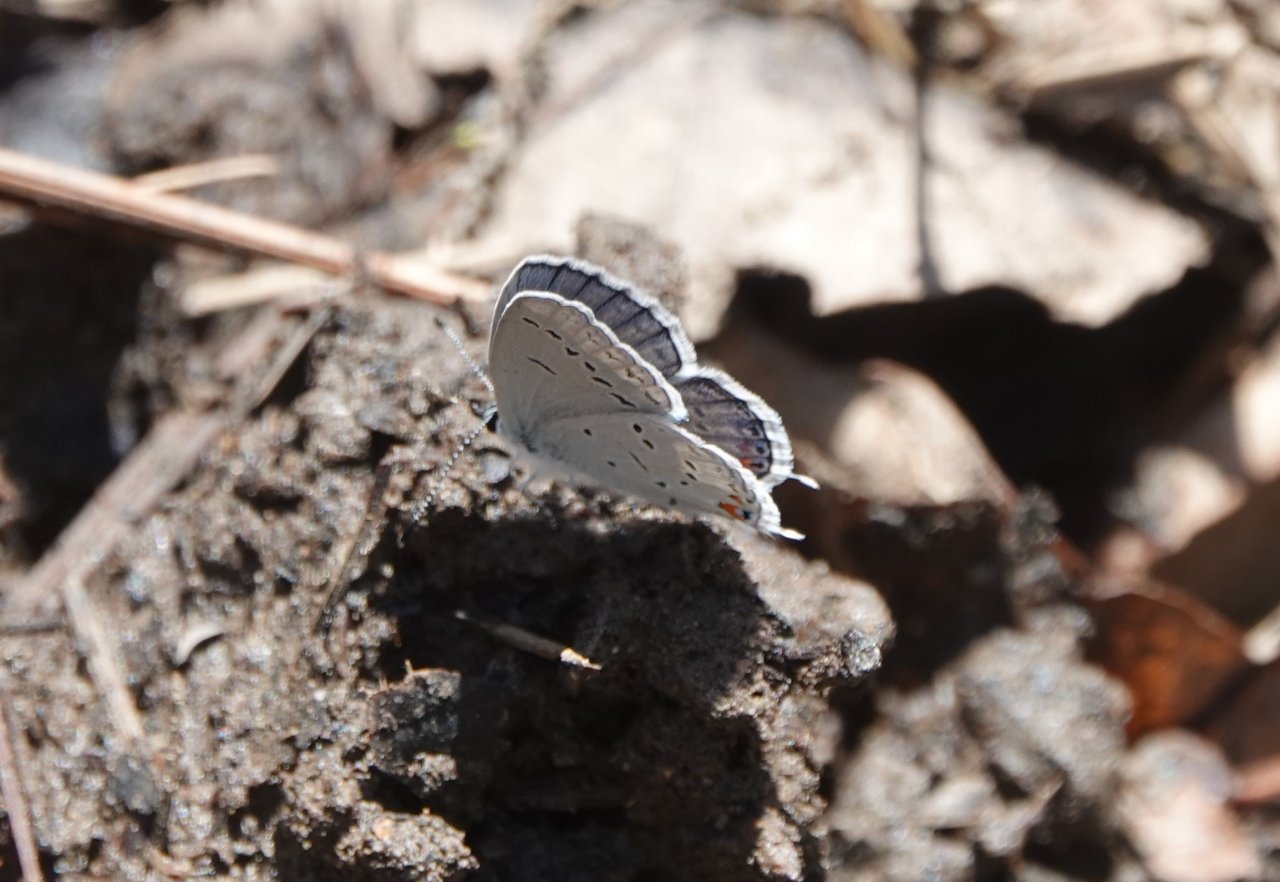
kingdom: Animalia
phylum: Arthropoda
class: Insecta
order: Lepidoptera
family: Lycaenidae
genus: Elkalyce
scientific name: Elkalyce comyntas
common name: Eastern Tailed-Blue
